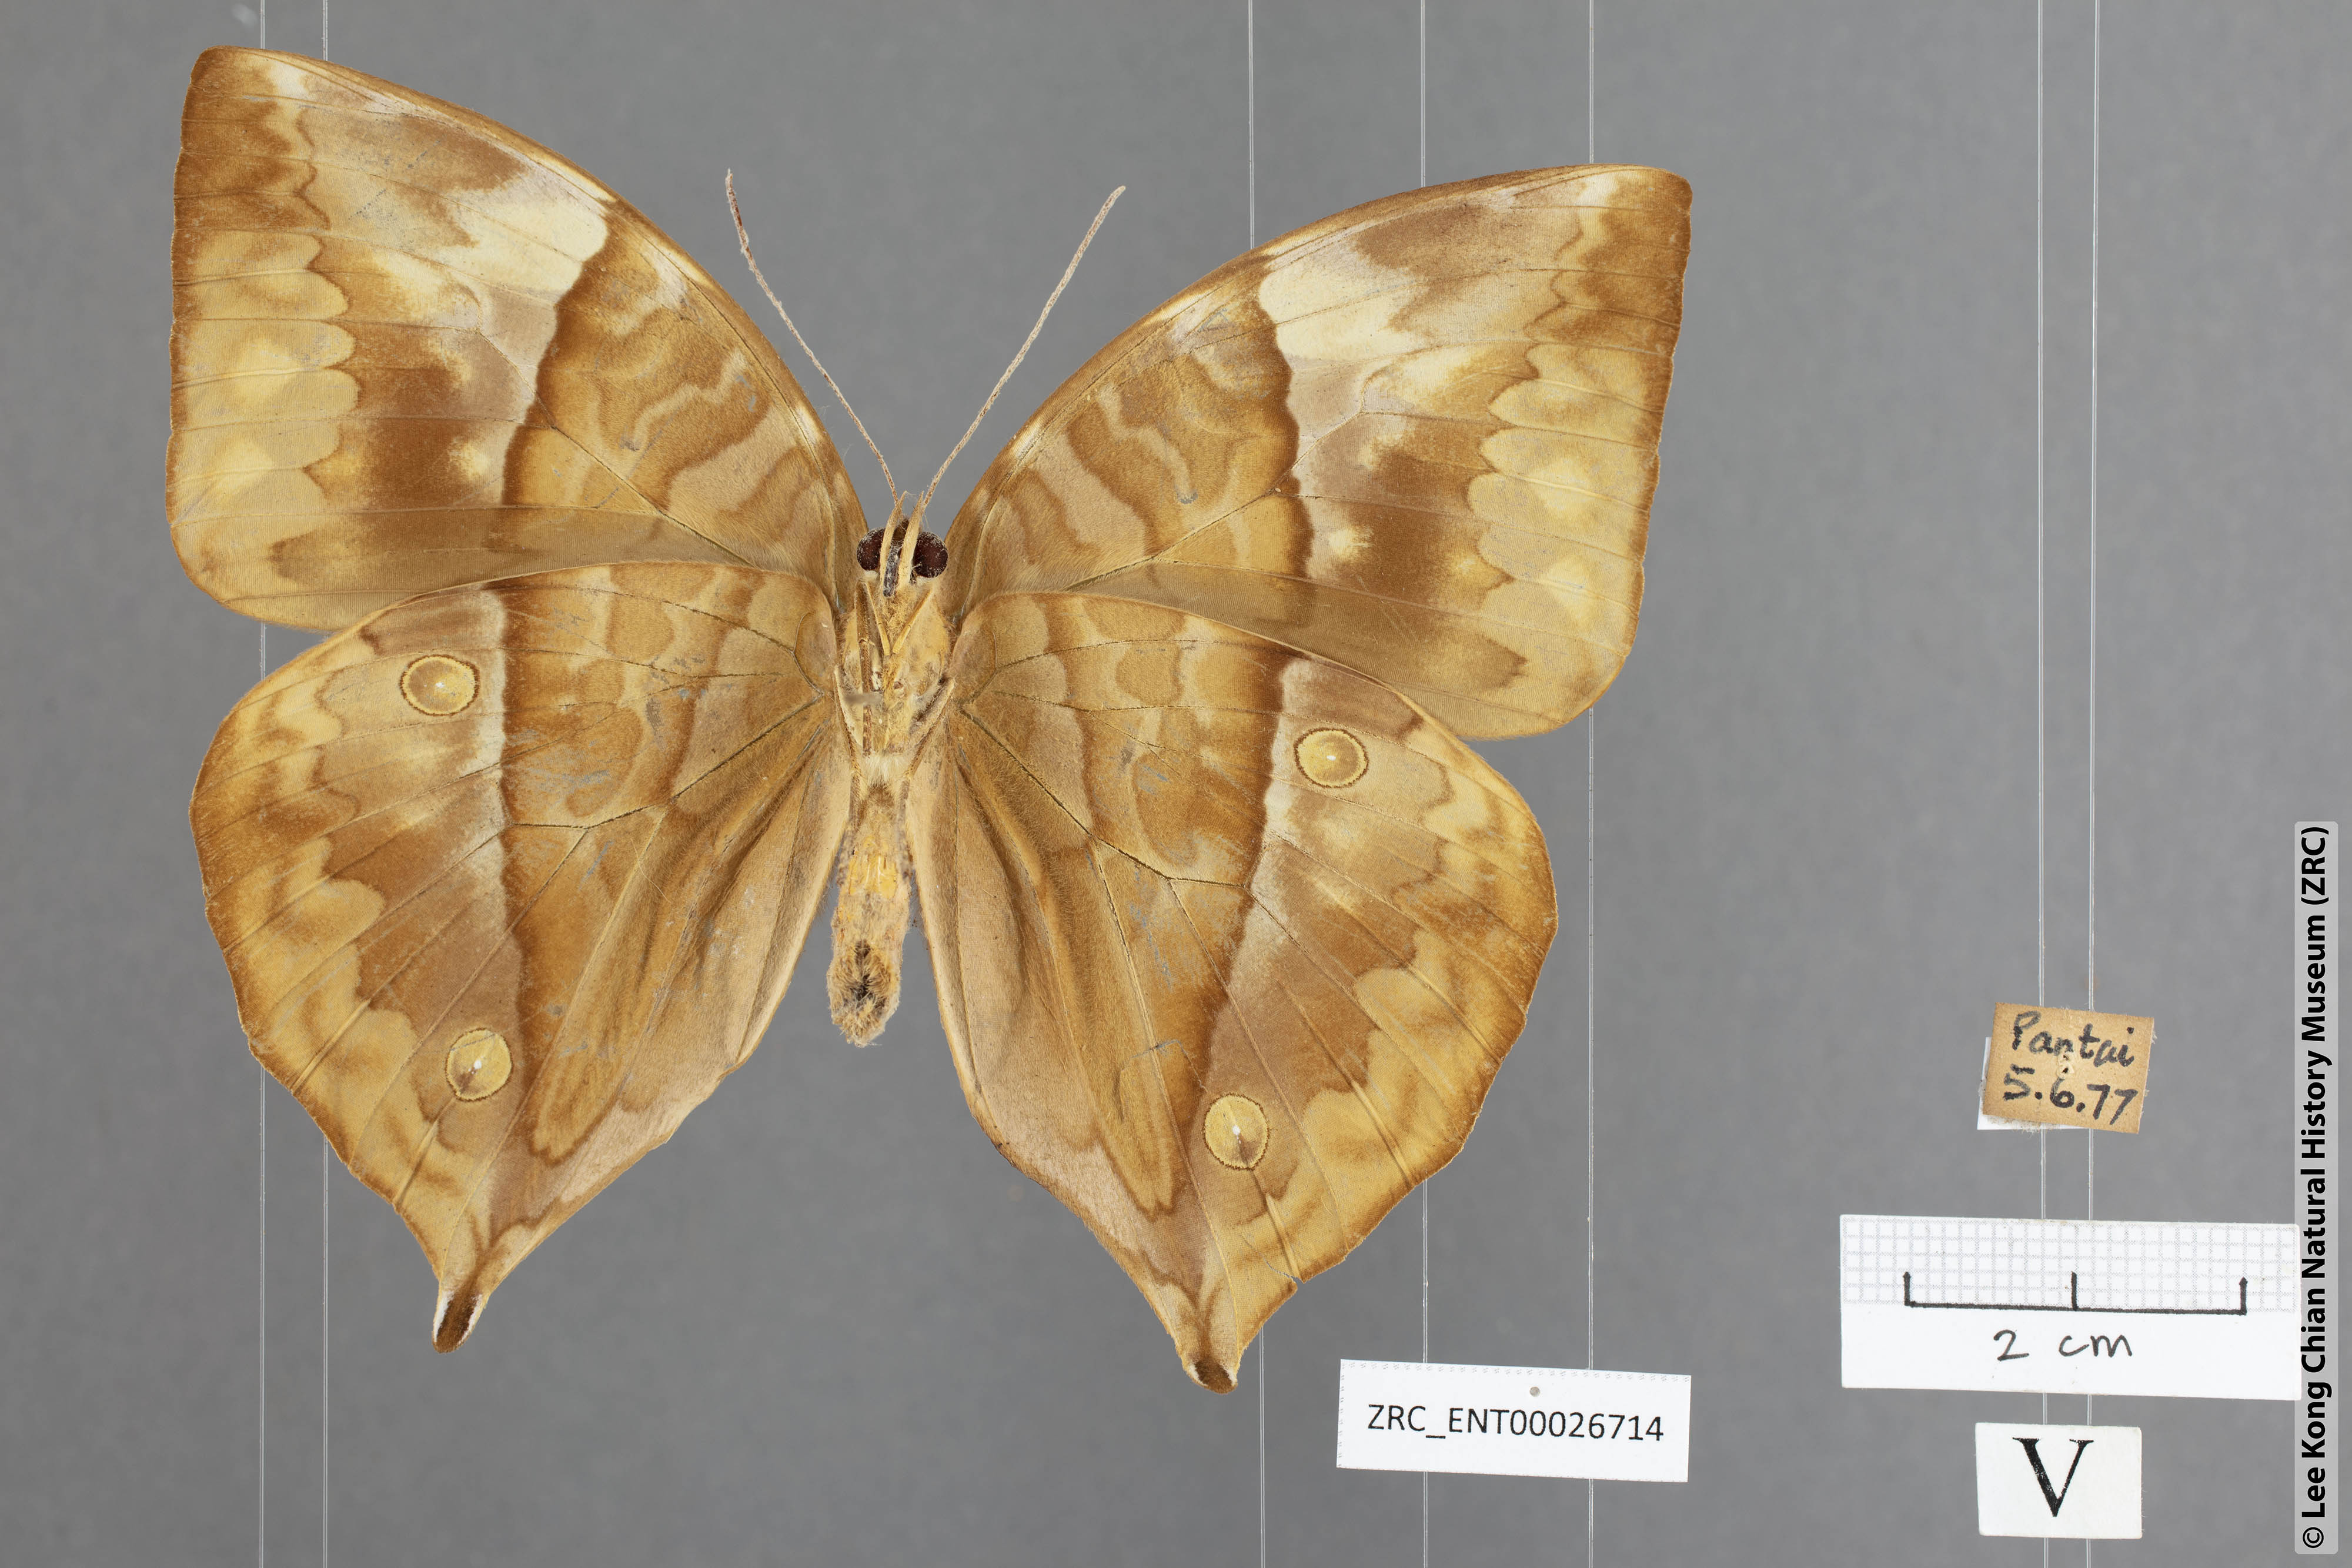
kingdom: Animalia
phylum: Arthropoda
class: Insecta
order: Lepidoptera
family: Nymphalidae
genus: Zeuxidia
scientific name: Zeuxidia ameythystus
